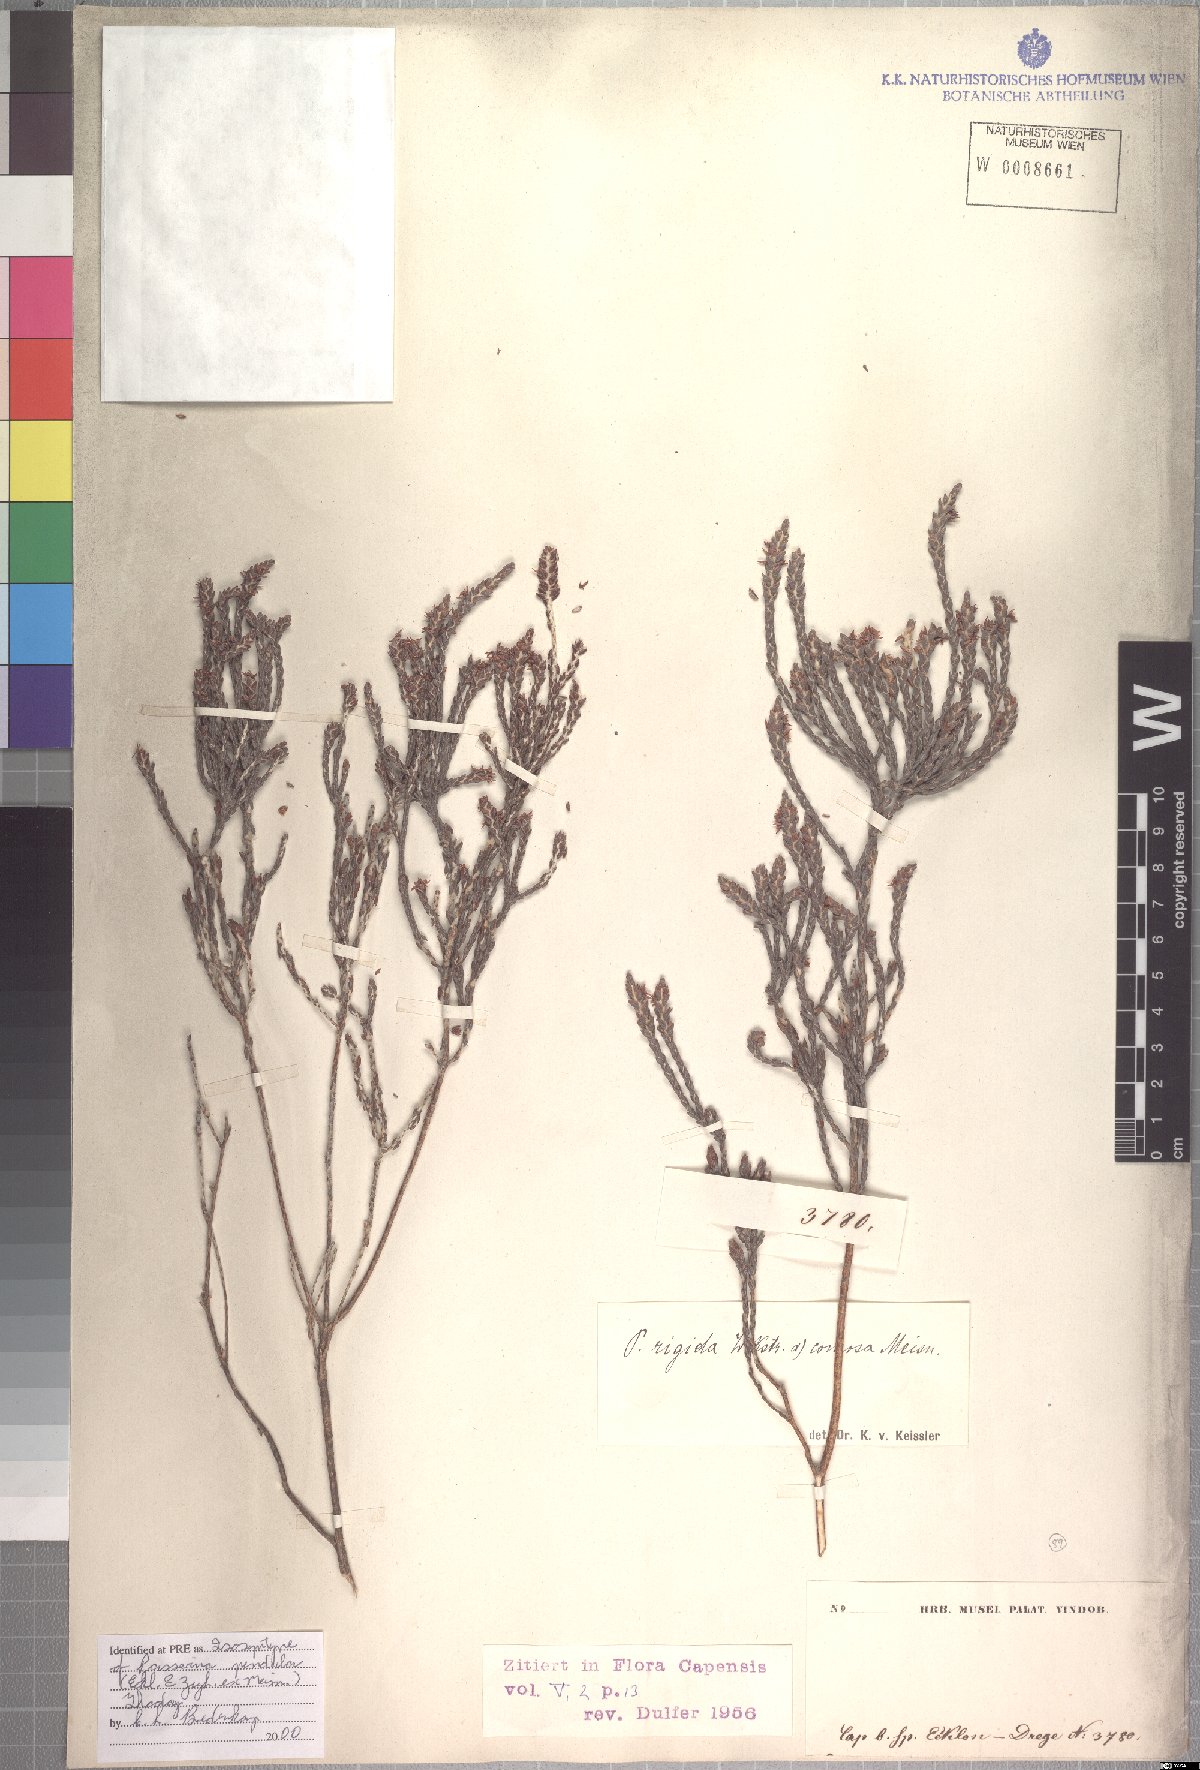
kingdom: Plantae
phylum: Tracheophyta
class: Magnoliopsida
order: Malvales
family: Thymelaeaceae
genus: Passerina
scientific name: Passerina pendula
